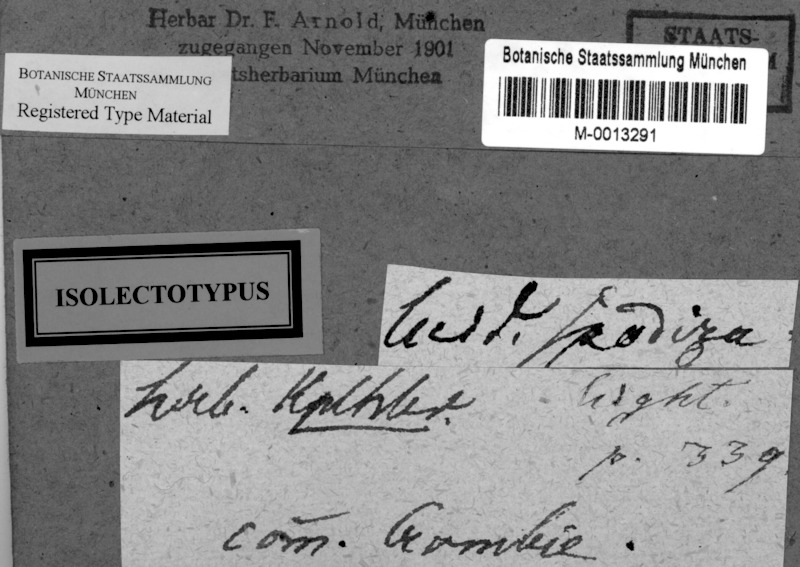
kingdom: Fungi
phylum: Ascomycota
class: Lecanoromycetes
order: Lecanorales
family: Byssolomataceae
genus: Micarea
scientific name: Micarea denigrata
